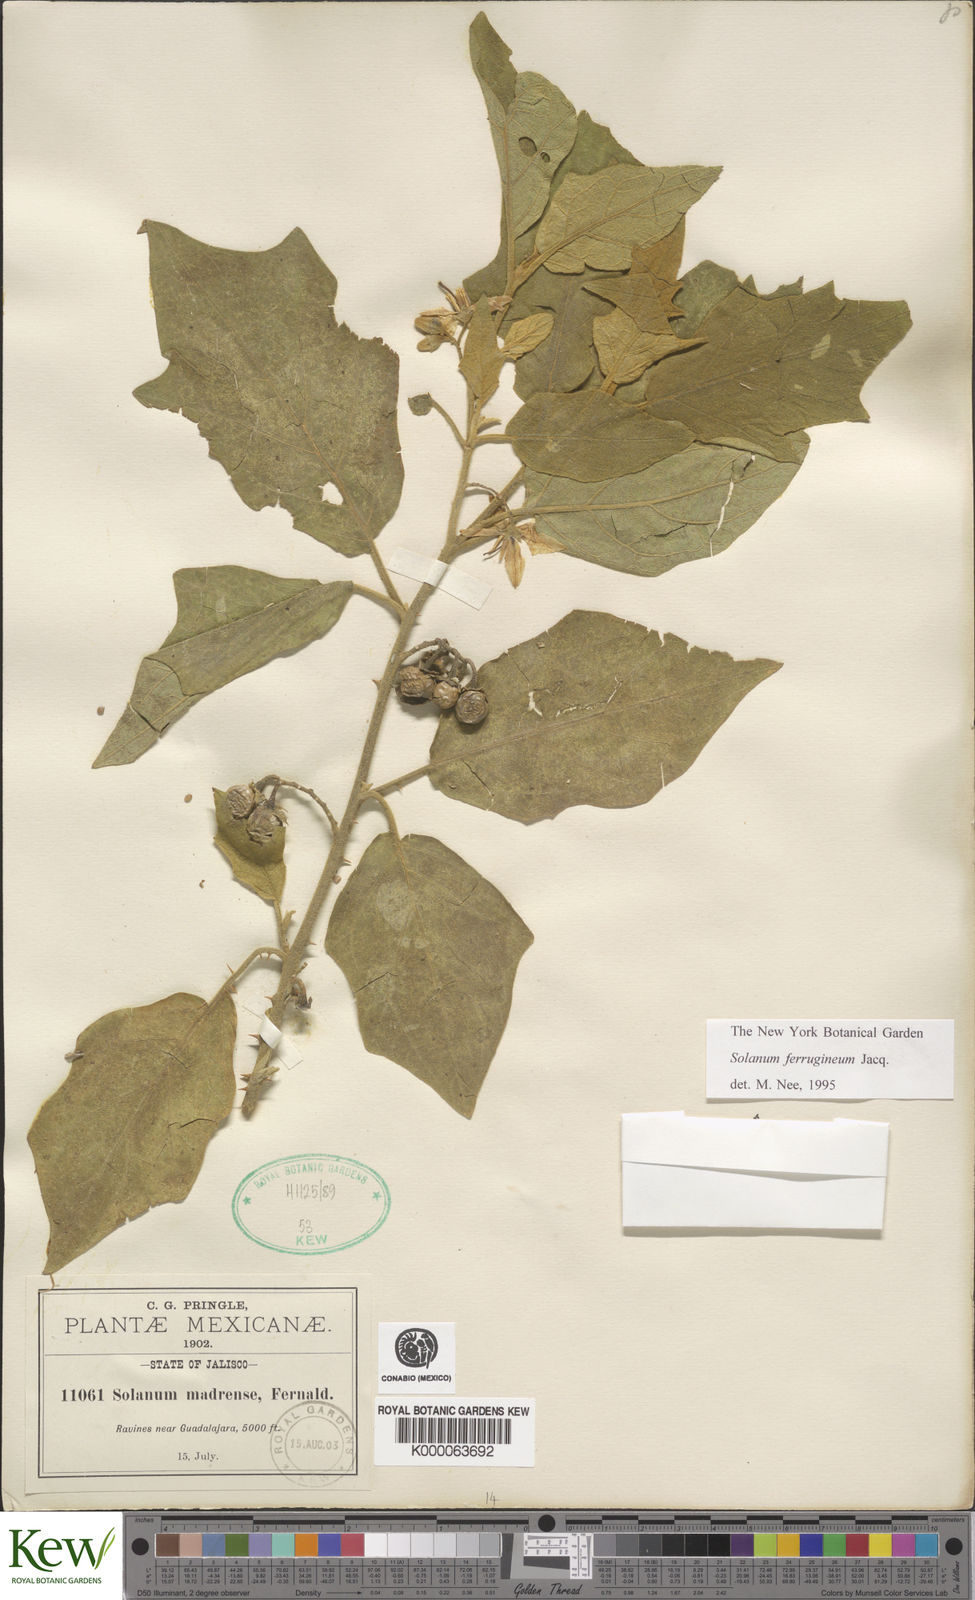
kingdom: Plantae
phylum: Tracheophyta
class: Magnoliopsida
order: Solanales
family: Solanaceae
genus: Solanum
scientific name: Solanum
